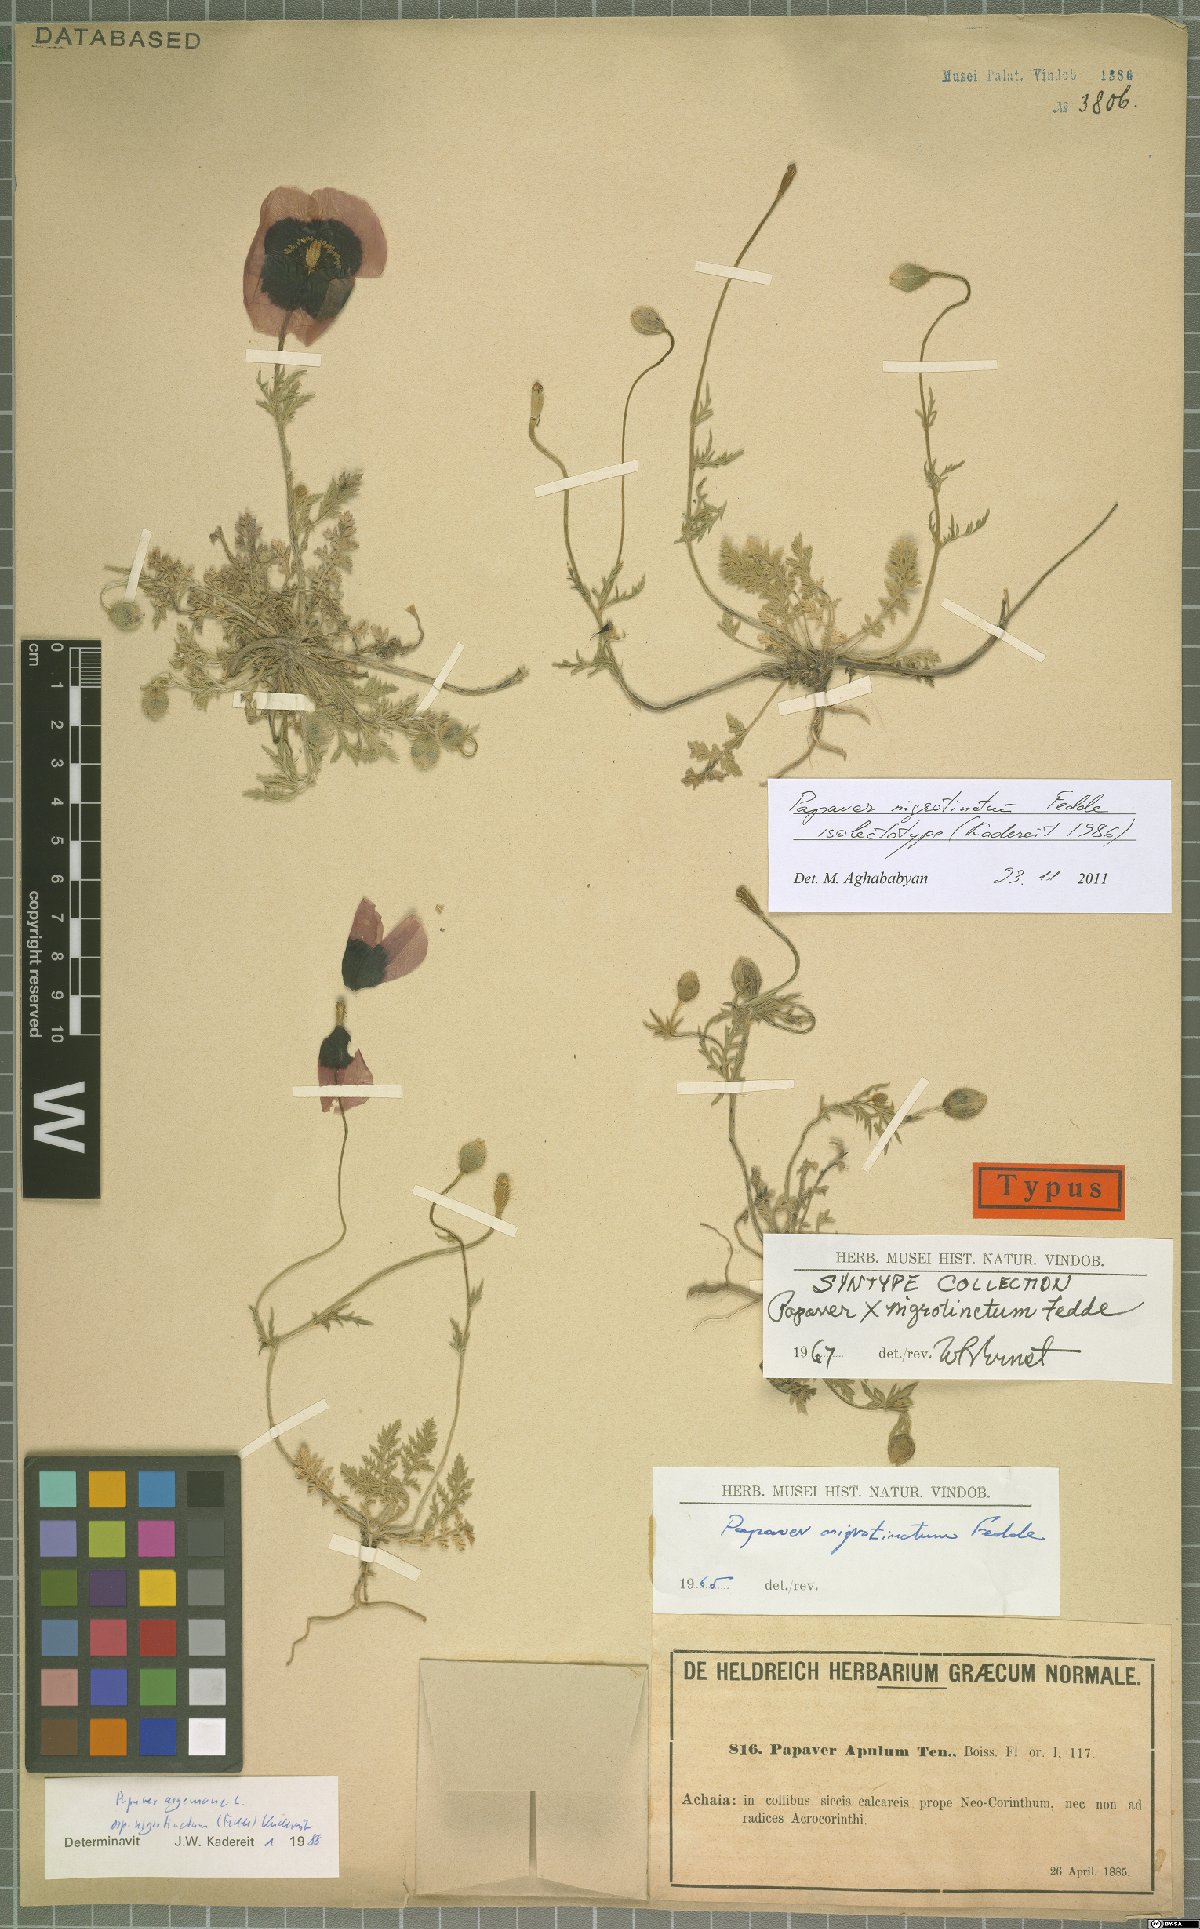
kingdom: Plantae
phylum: Tracheophyta
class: Magnoliopsida
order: Ranunculales
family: Papaveraceae
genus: Roemeria
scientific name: Roemeria nigrotincta
